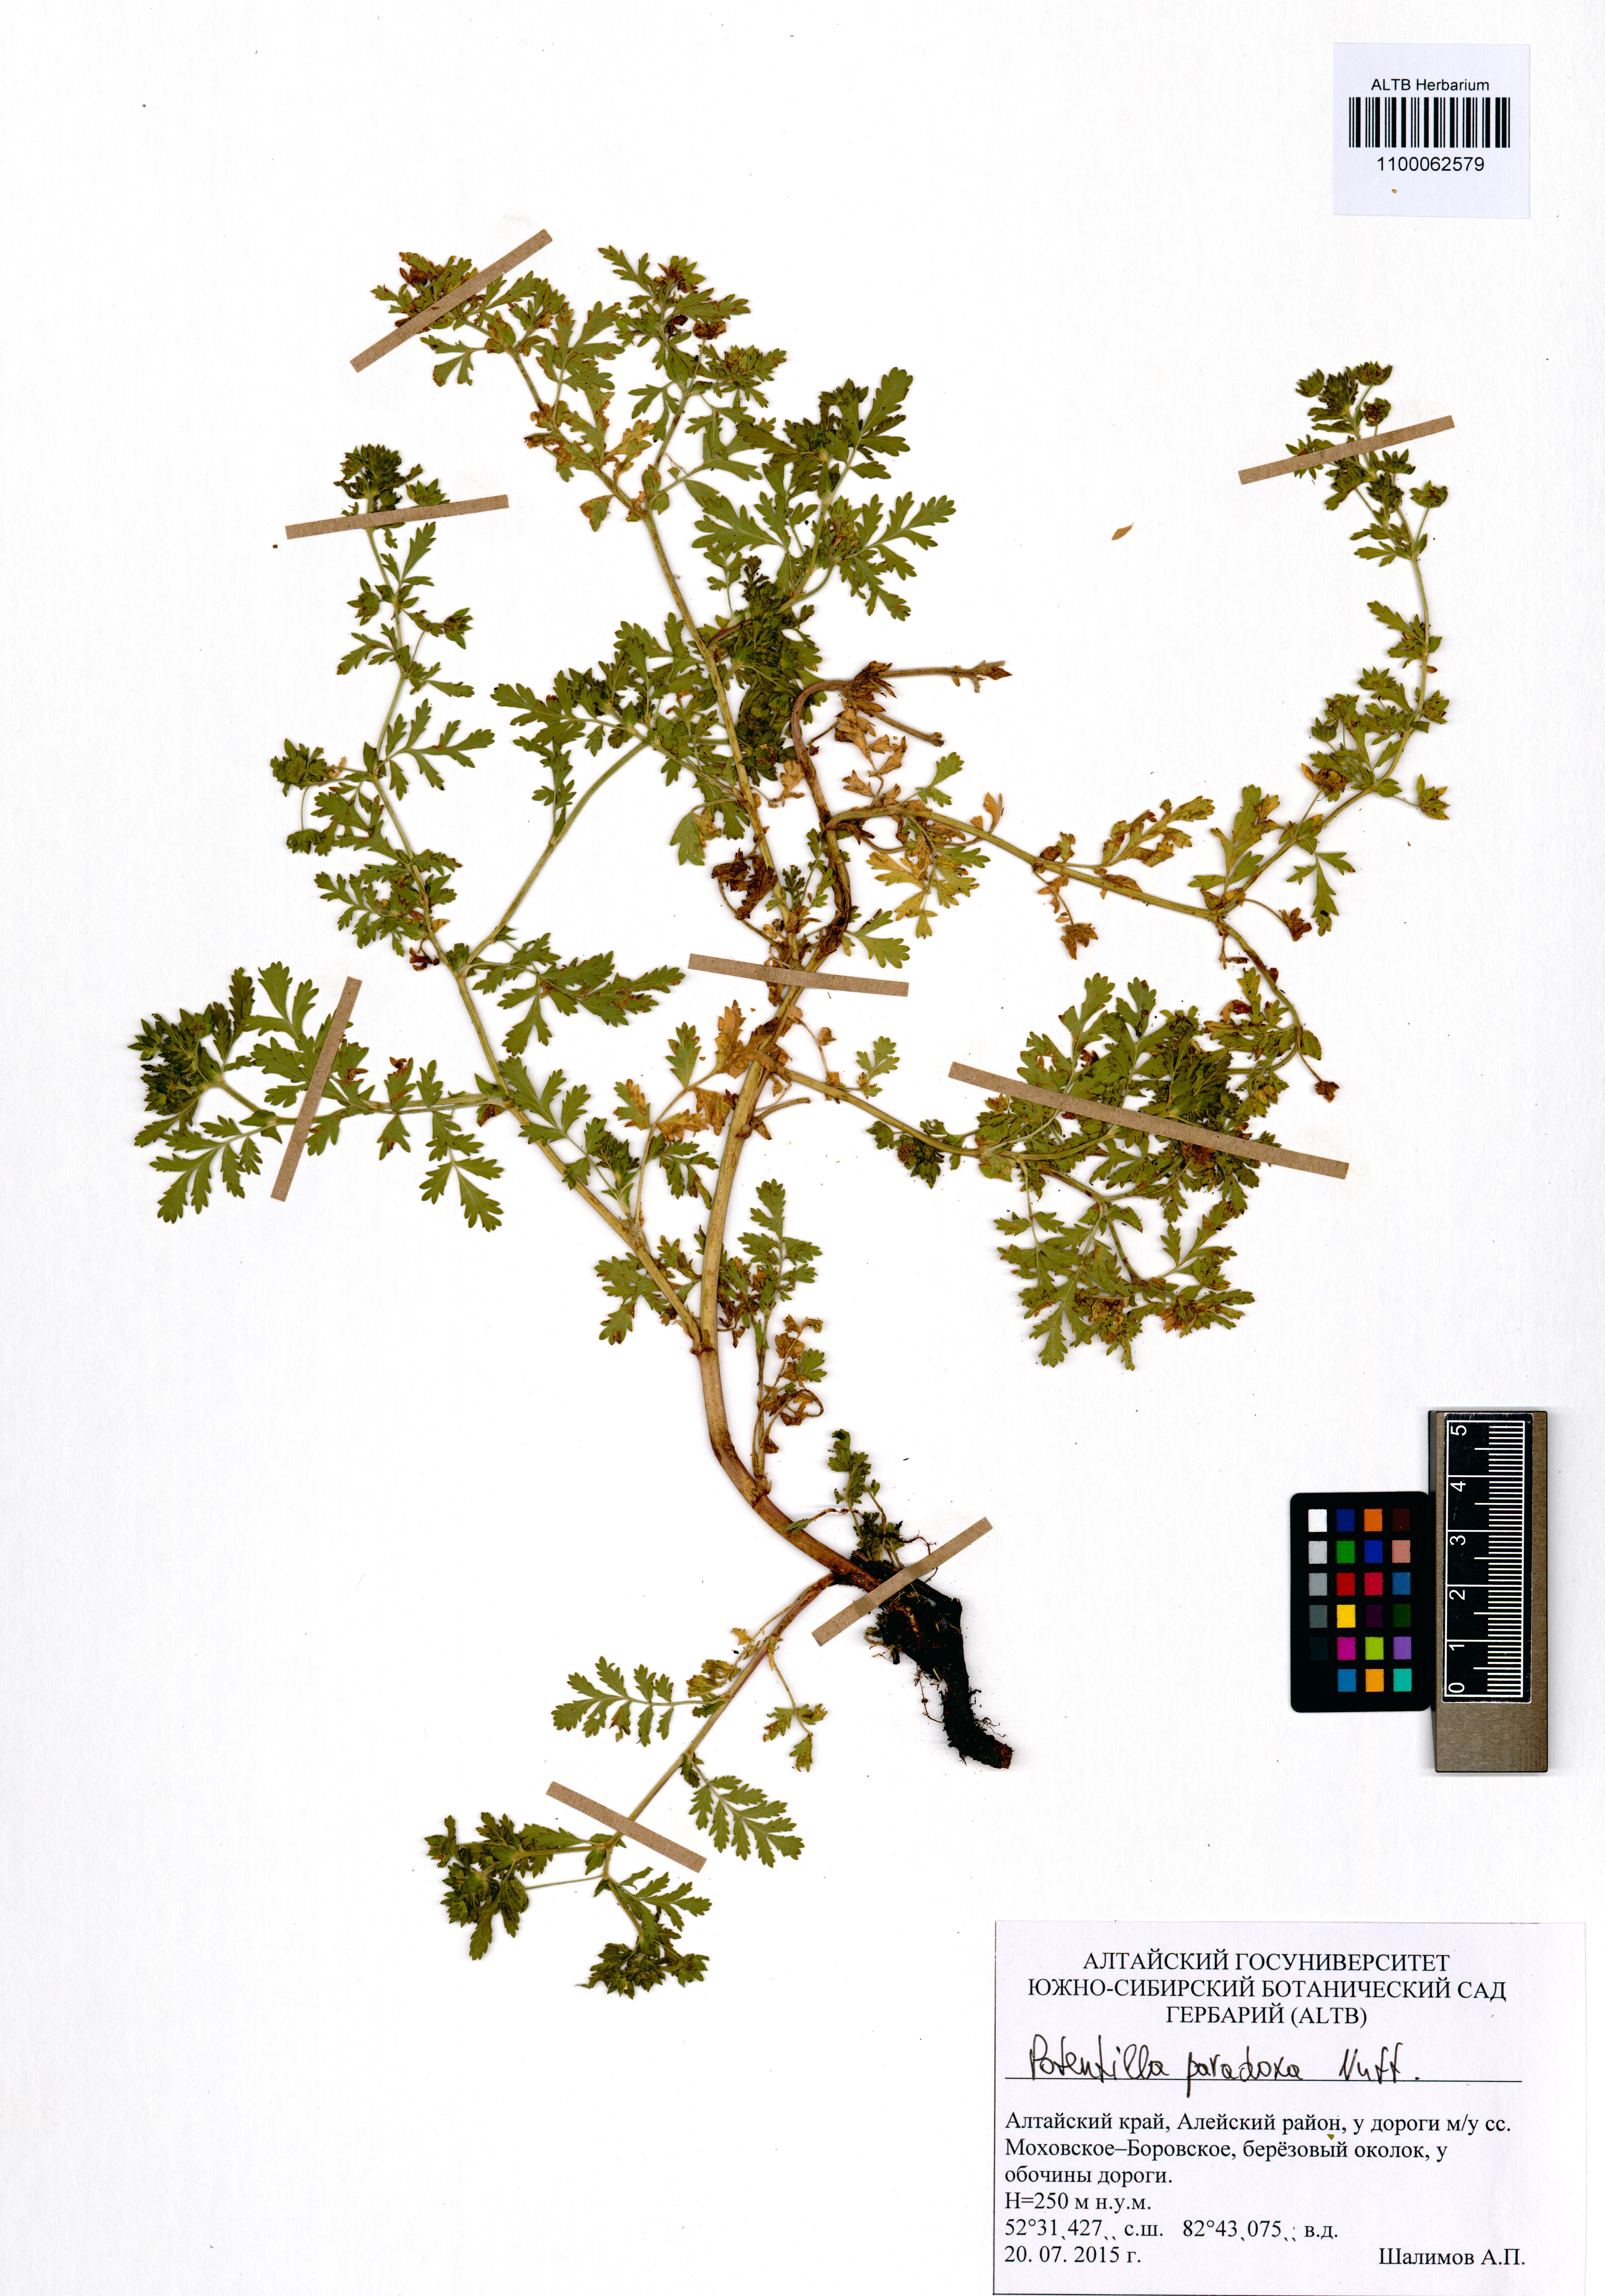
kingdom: Plantae
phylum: Tracheophyta
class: Magnoliopsida
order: Rosales
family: Rosaceae
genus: Potentilla
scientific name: Potentilla supina
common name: Prostrate cinquefoil
